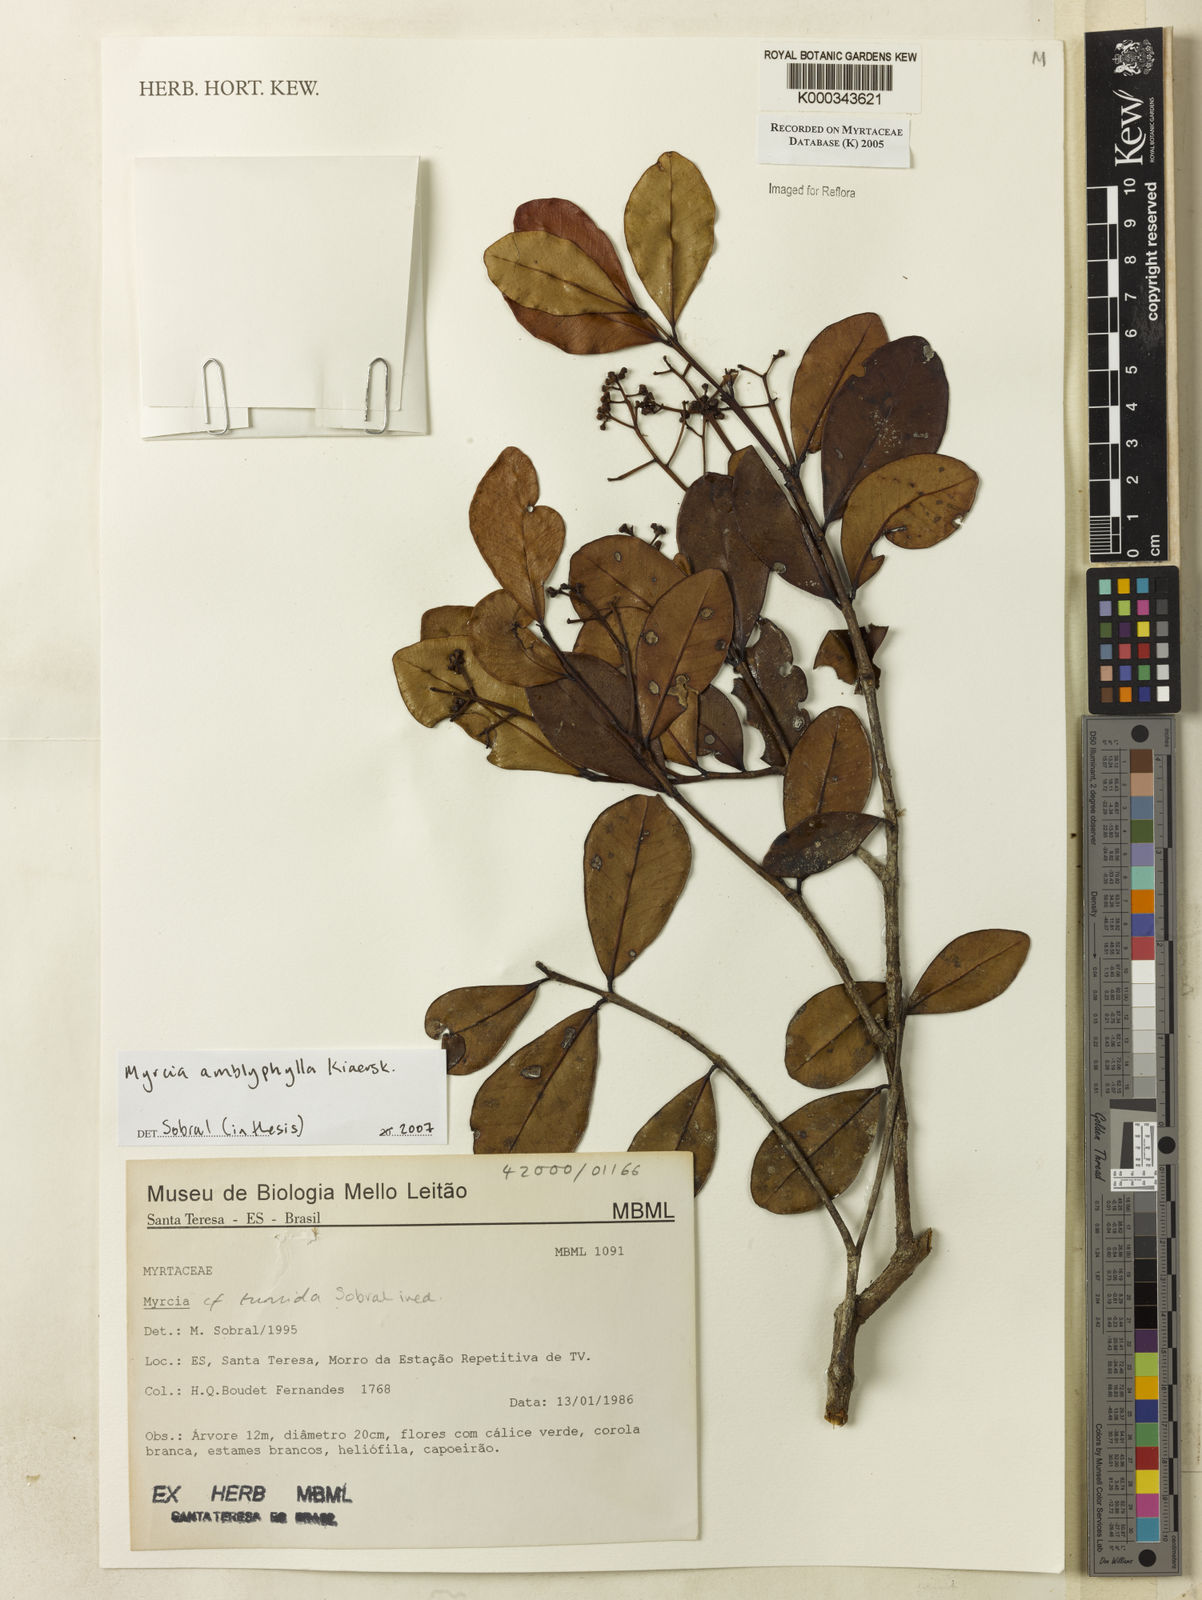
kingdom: Plantae
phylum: Tracheophyta
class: Magnoliopsida
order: Myrtales
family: Myrtaceae
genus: Myrcia
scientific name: Myrcia
